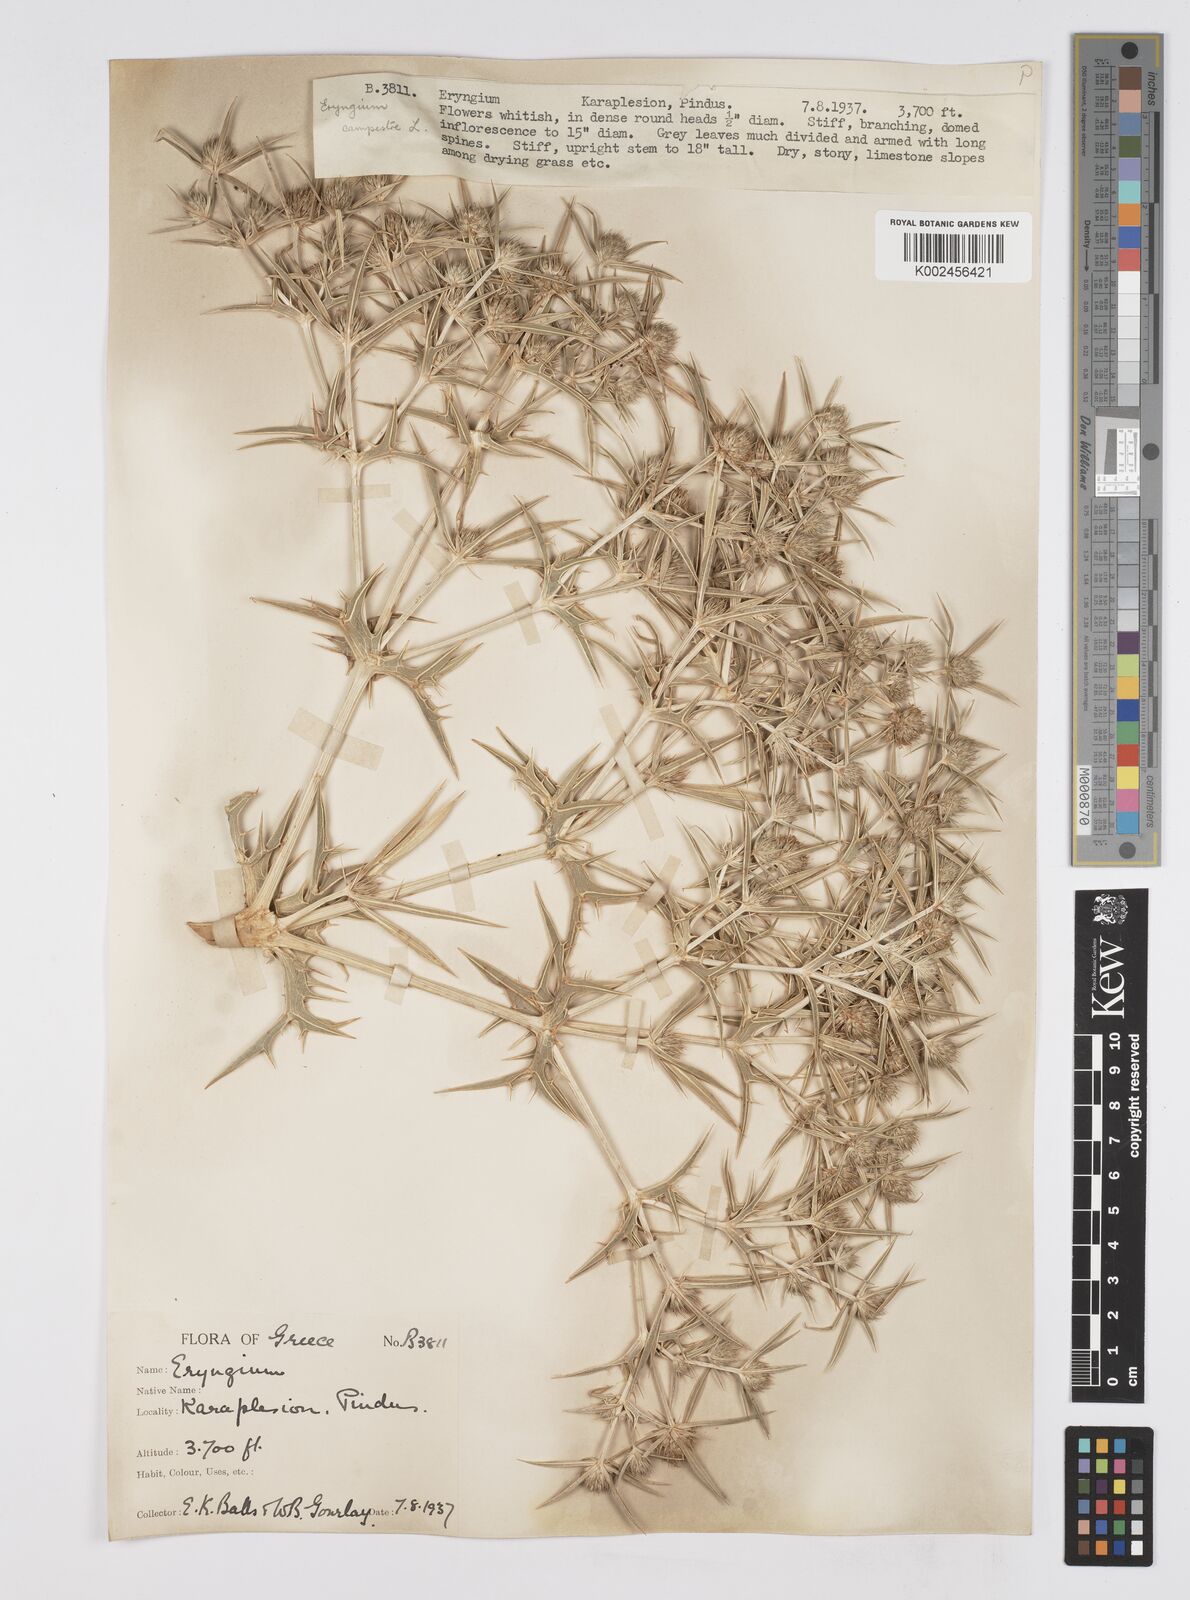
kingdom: Plantae
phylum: Tracheophyta
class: Magnoliopsida
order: Apiales
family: Apiaceae
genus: Eryngium
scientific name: Eryngium campestre
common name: Field eryngo
